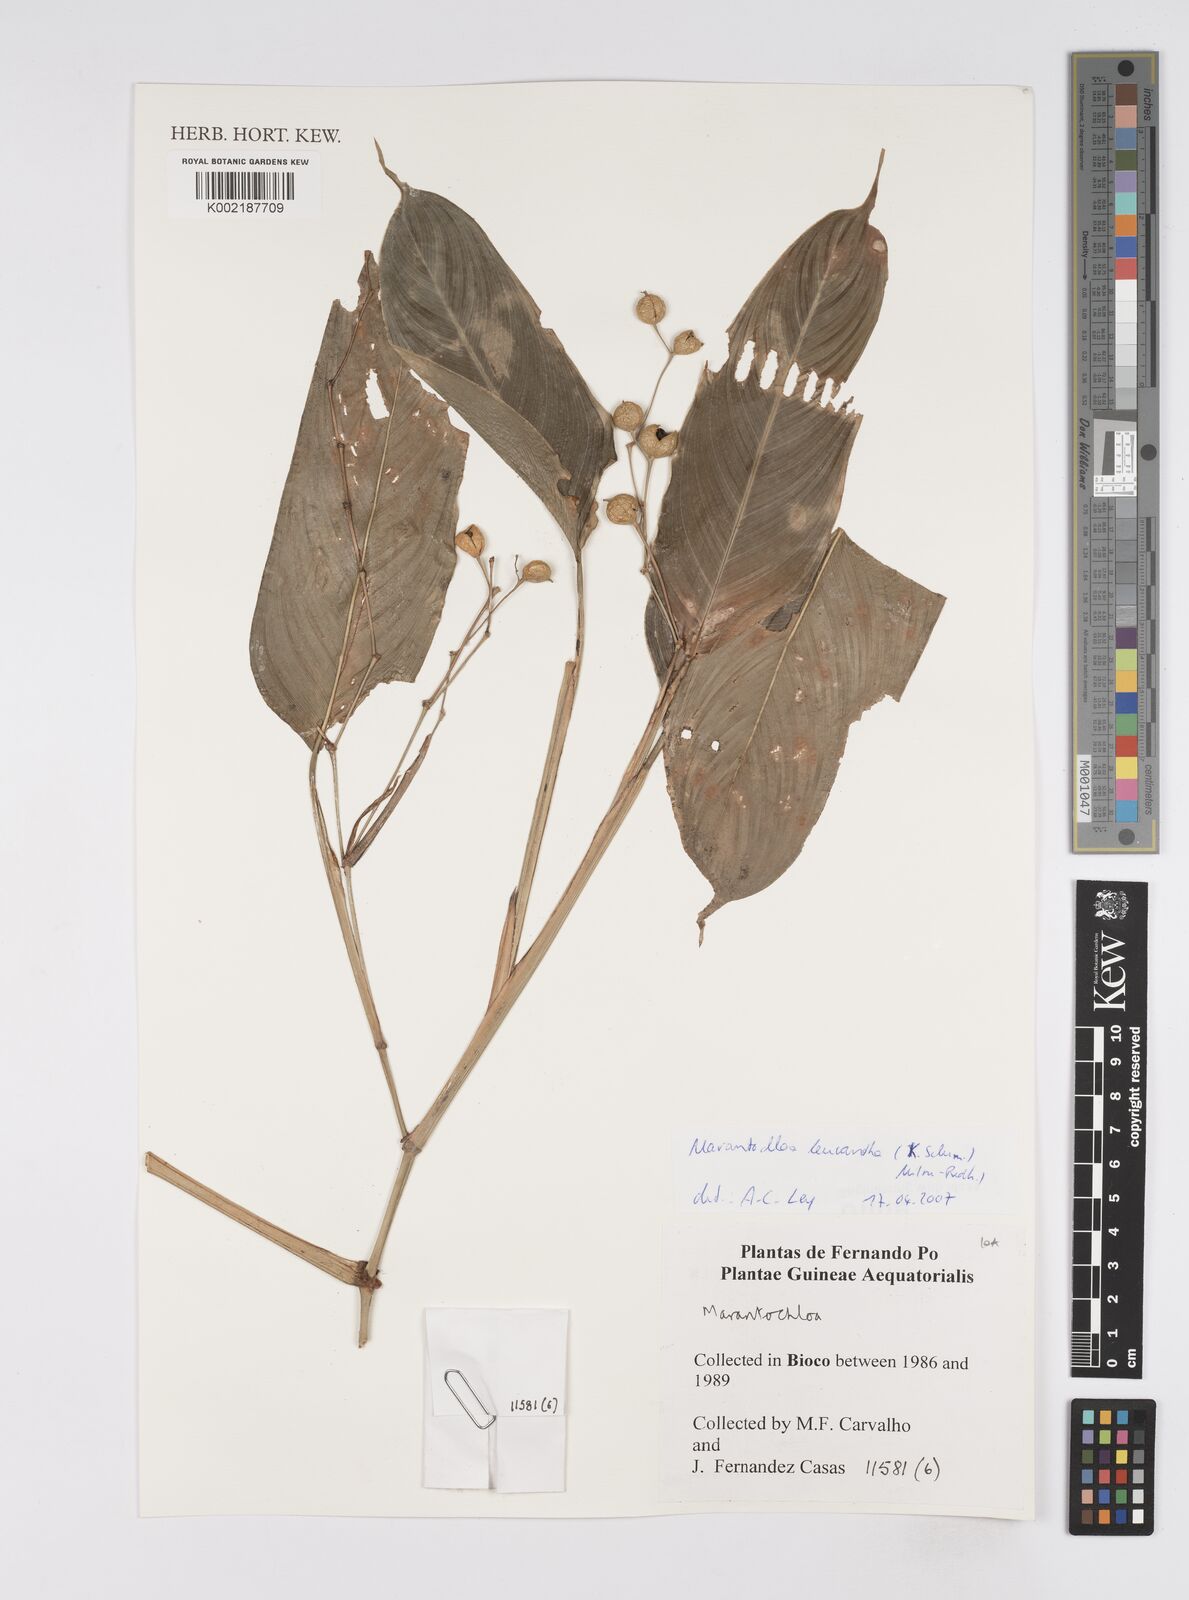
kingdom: Plantae
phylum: Tracheophyta
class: Liliopsida
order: Zingiberales
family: Marantaceae
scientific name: Marantaceae
